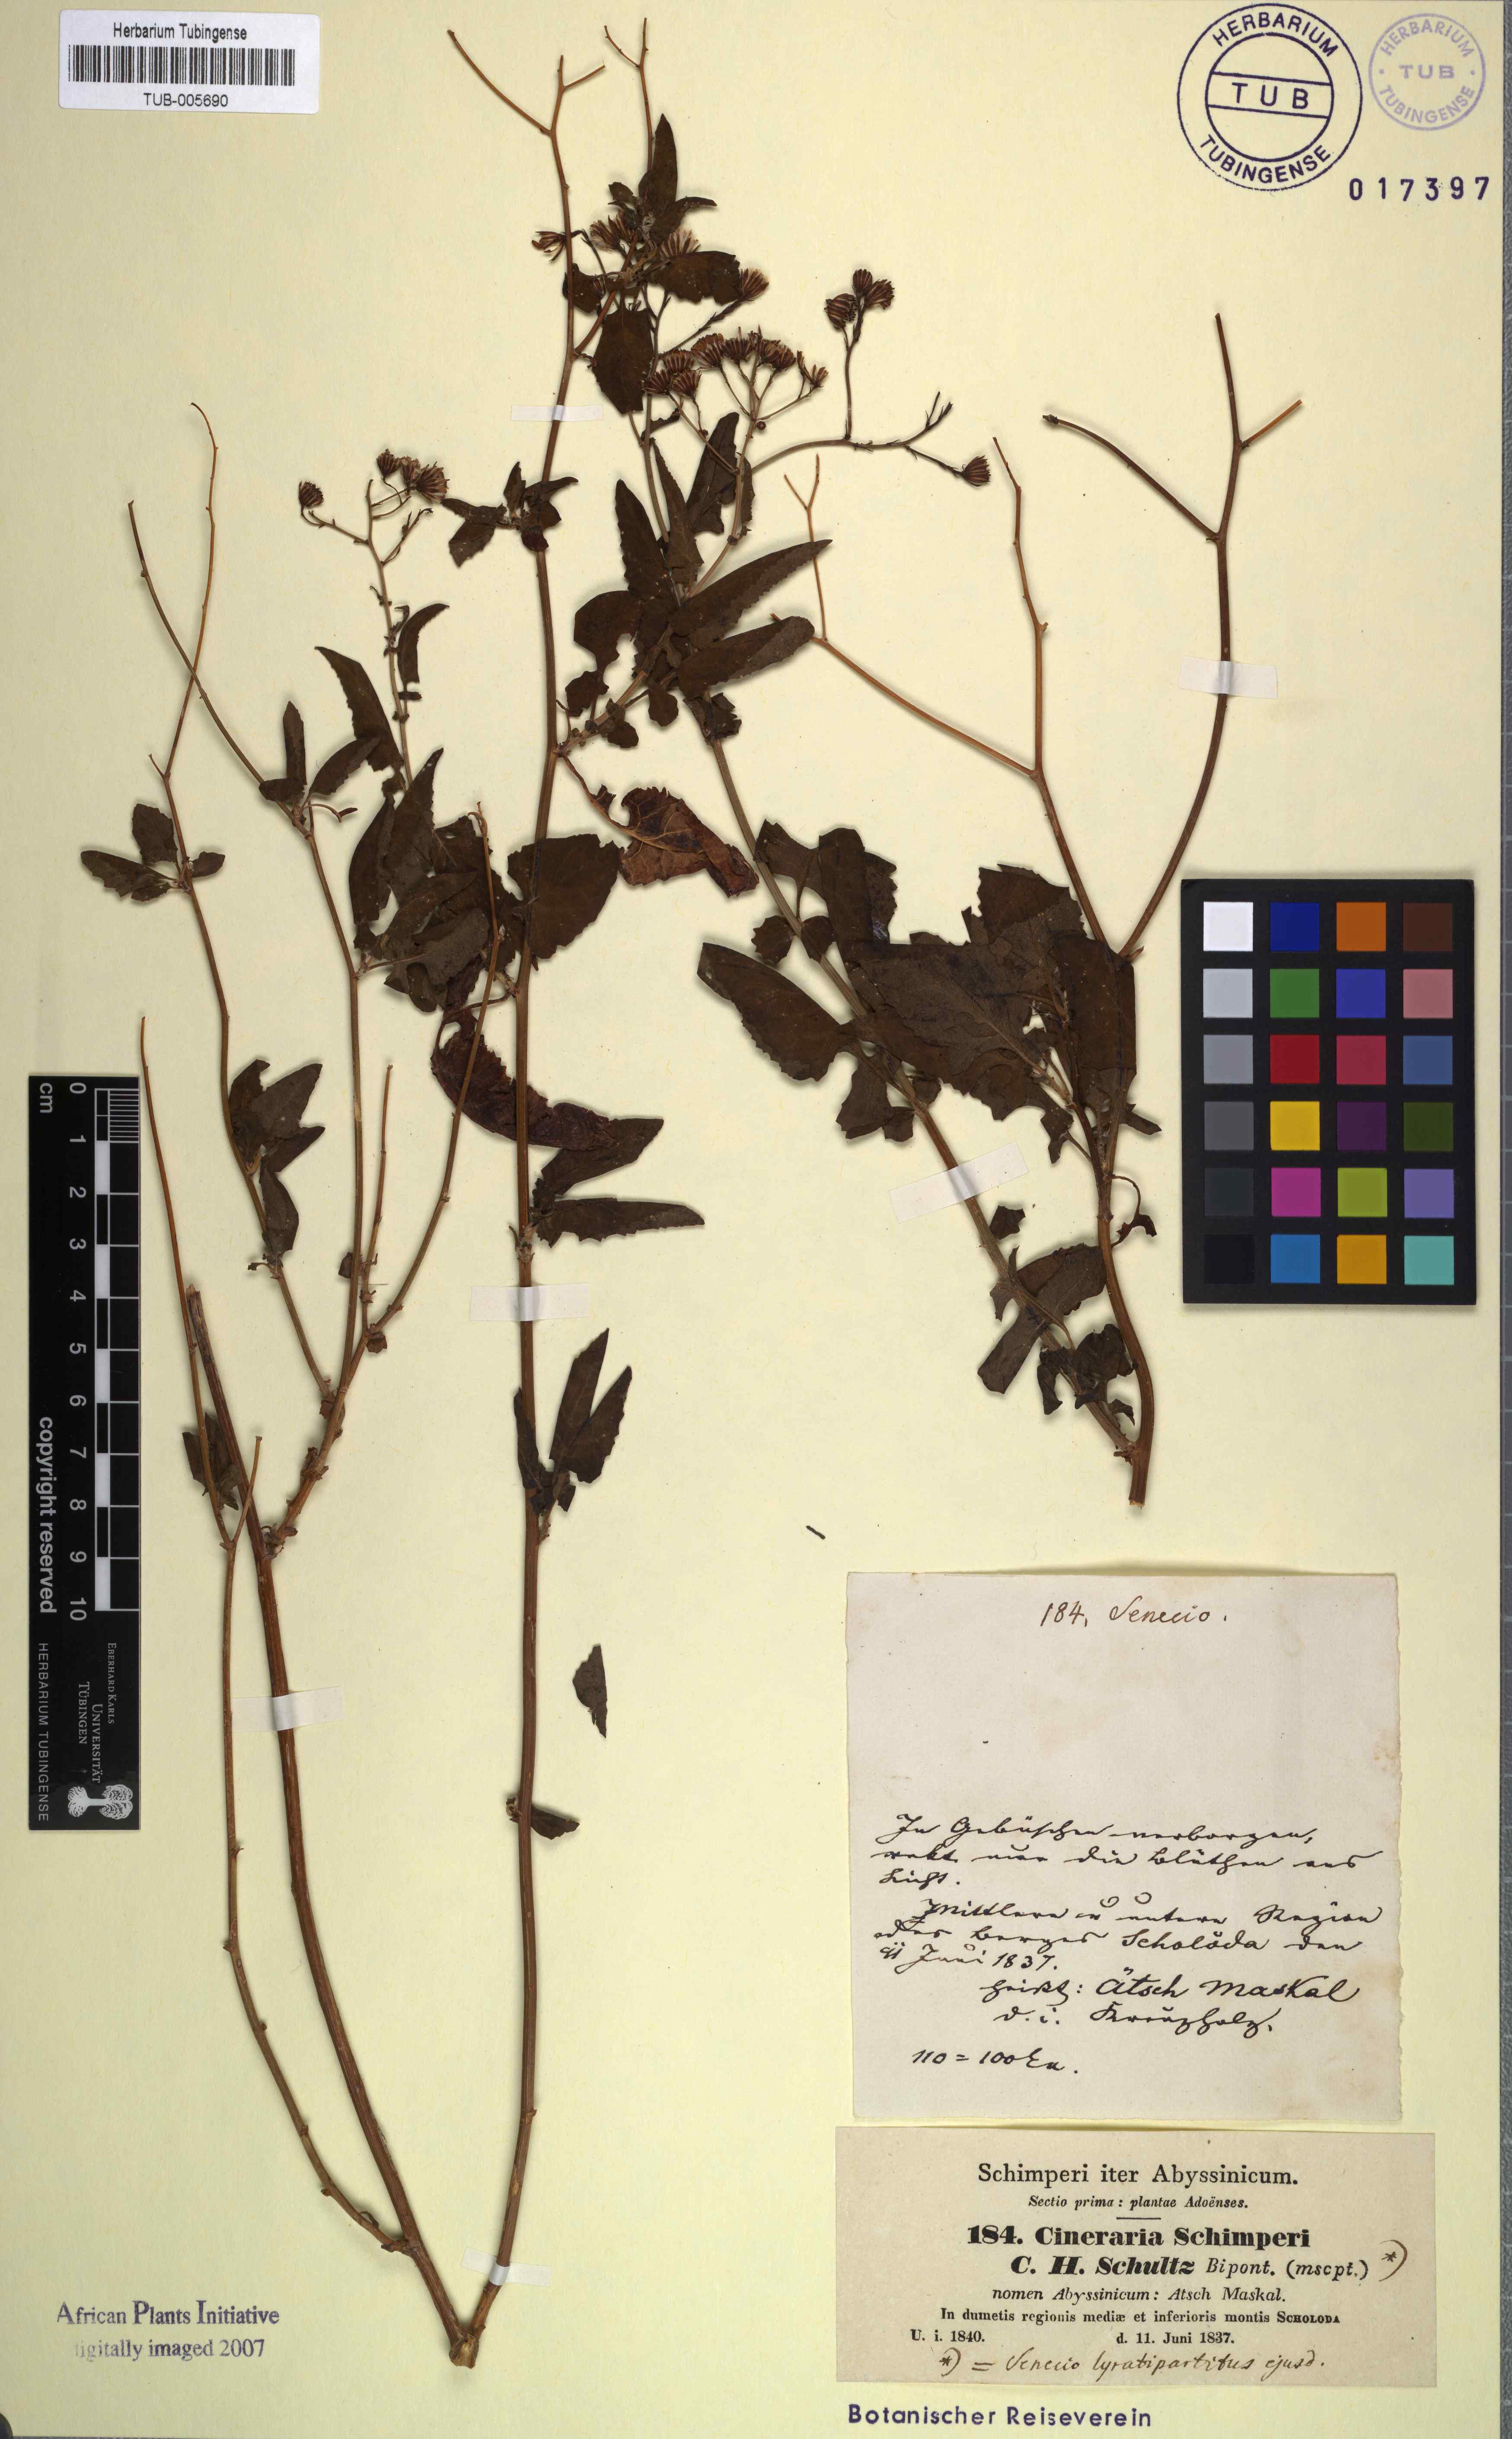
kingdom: Plantae
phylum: Tracheophyta
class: Magnoliopsida
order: Asterales
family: Asteraceae
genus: Senecio
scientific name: Senecio lyratus
